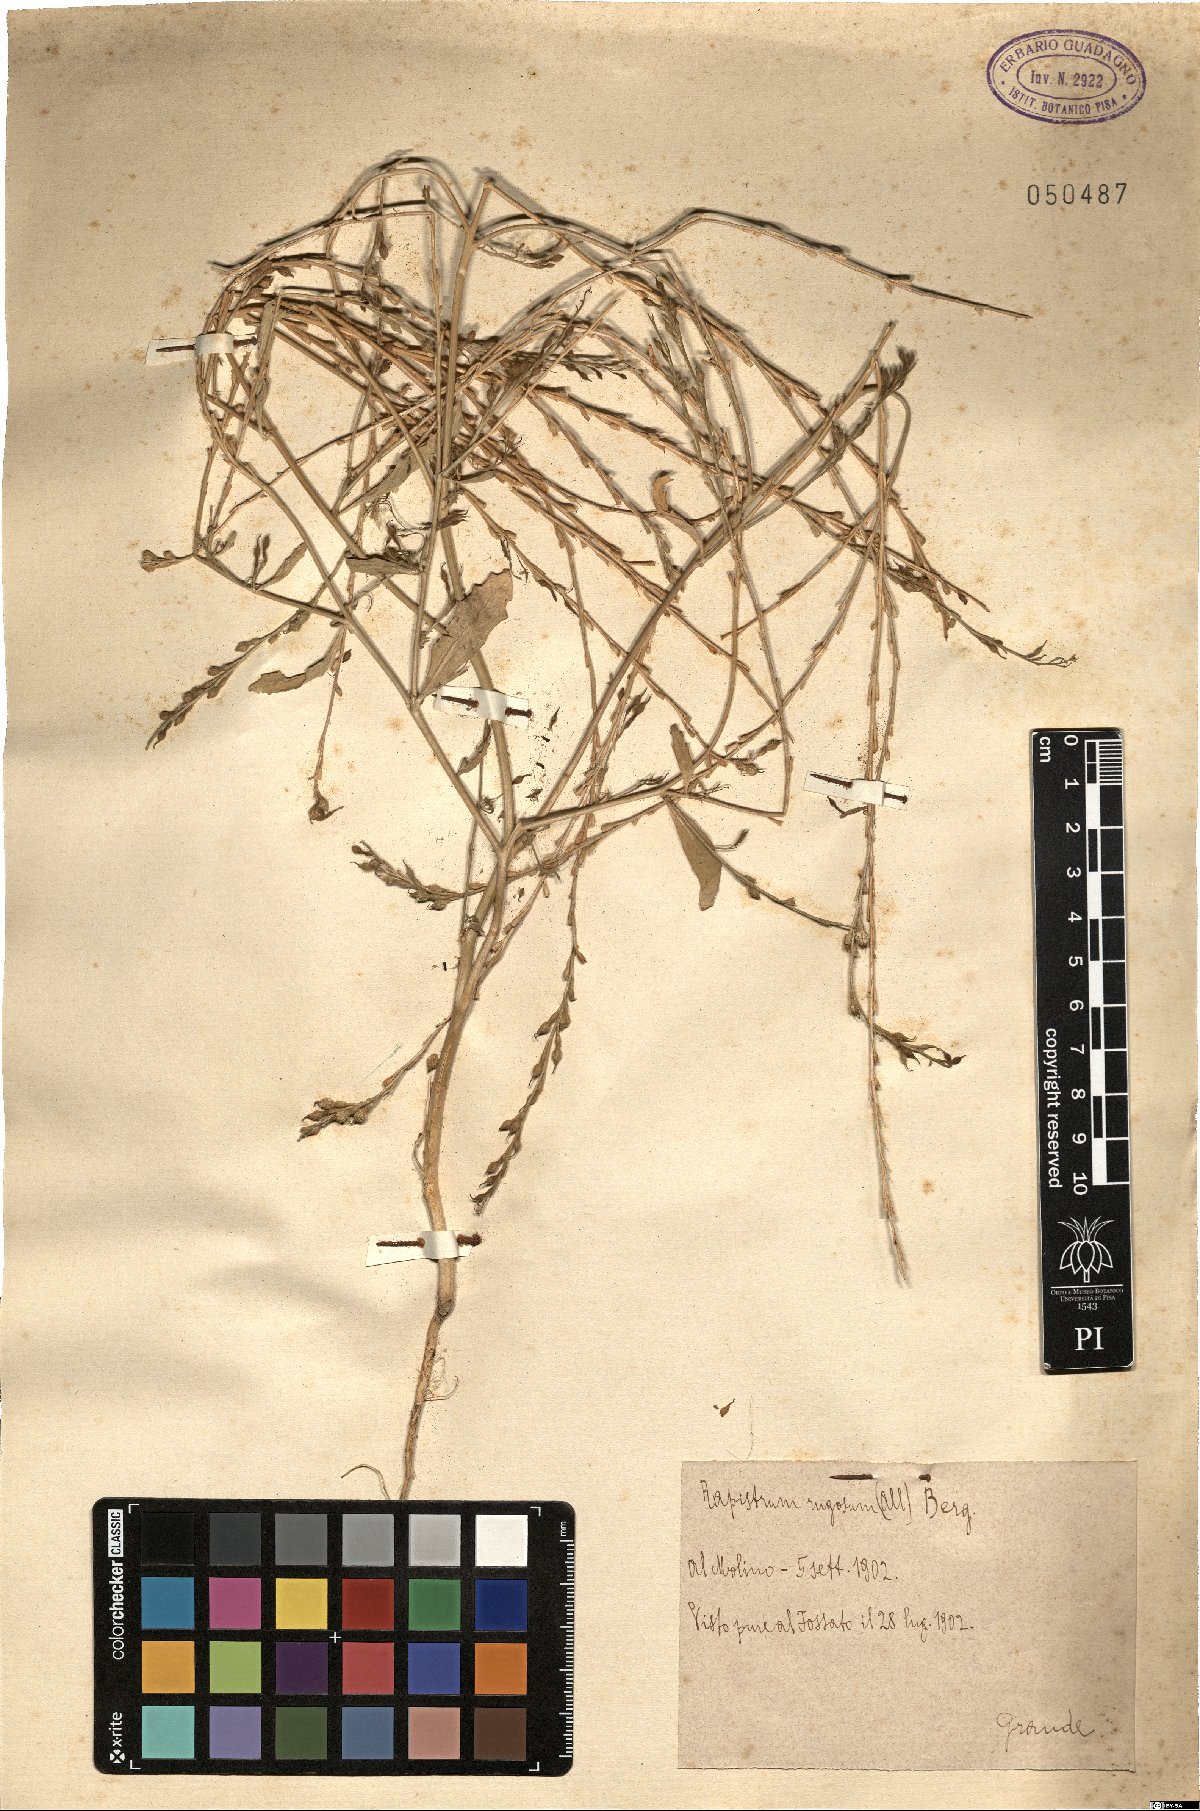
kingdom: Plantae
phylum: Tracheophyta
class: Magnoliopsida
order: Brassicales
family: Brassicaceae
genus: Rapistrum
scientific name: Rapistrum rugosum
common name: Annual bastardcabbage
